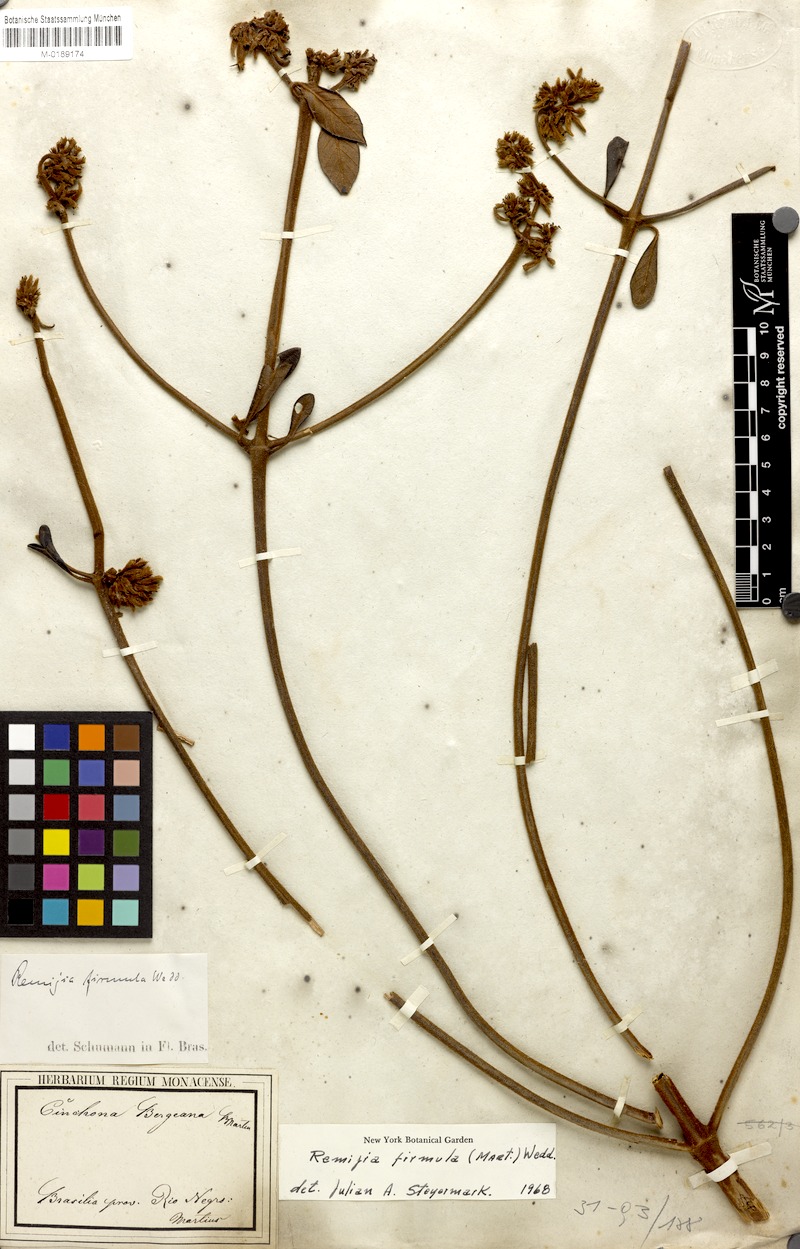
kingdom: Plantae
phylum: Tracheophyta
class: Magnoliopsida
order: Gentianales
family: Rubiaceae
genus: Remijia
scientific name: Remijia firmula
